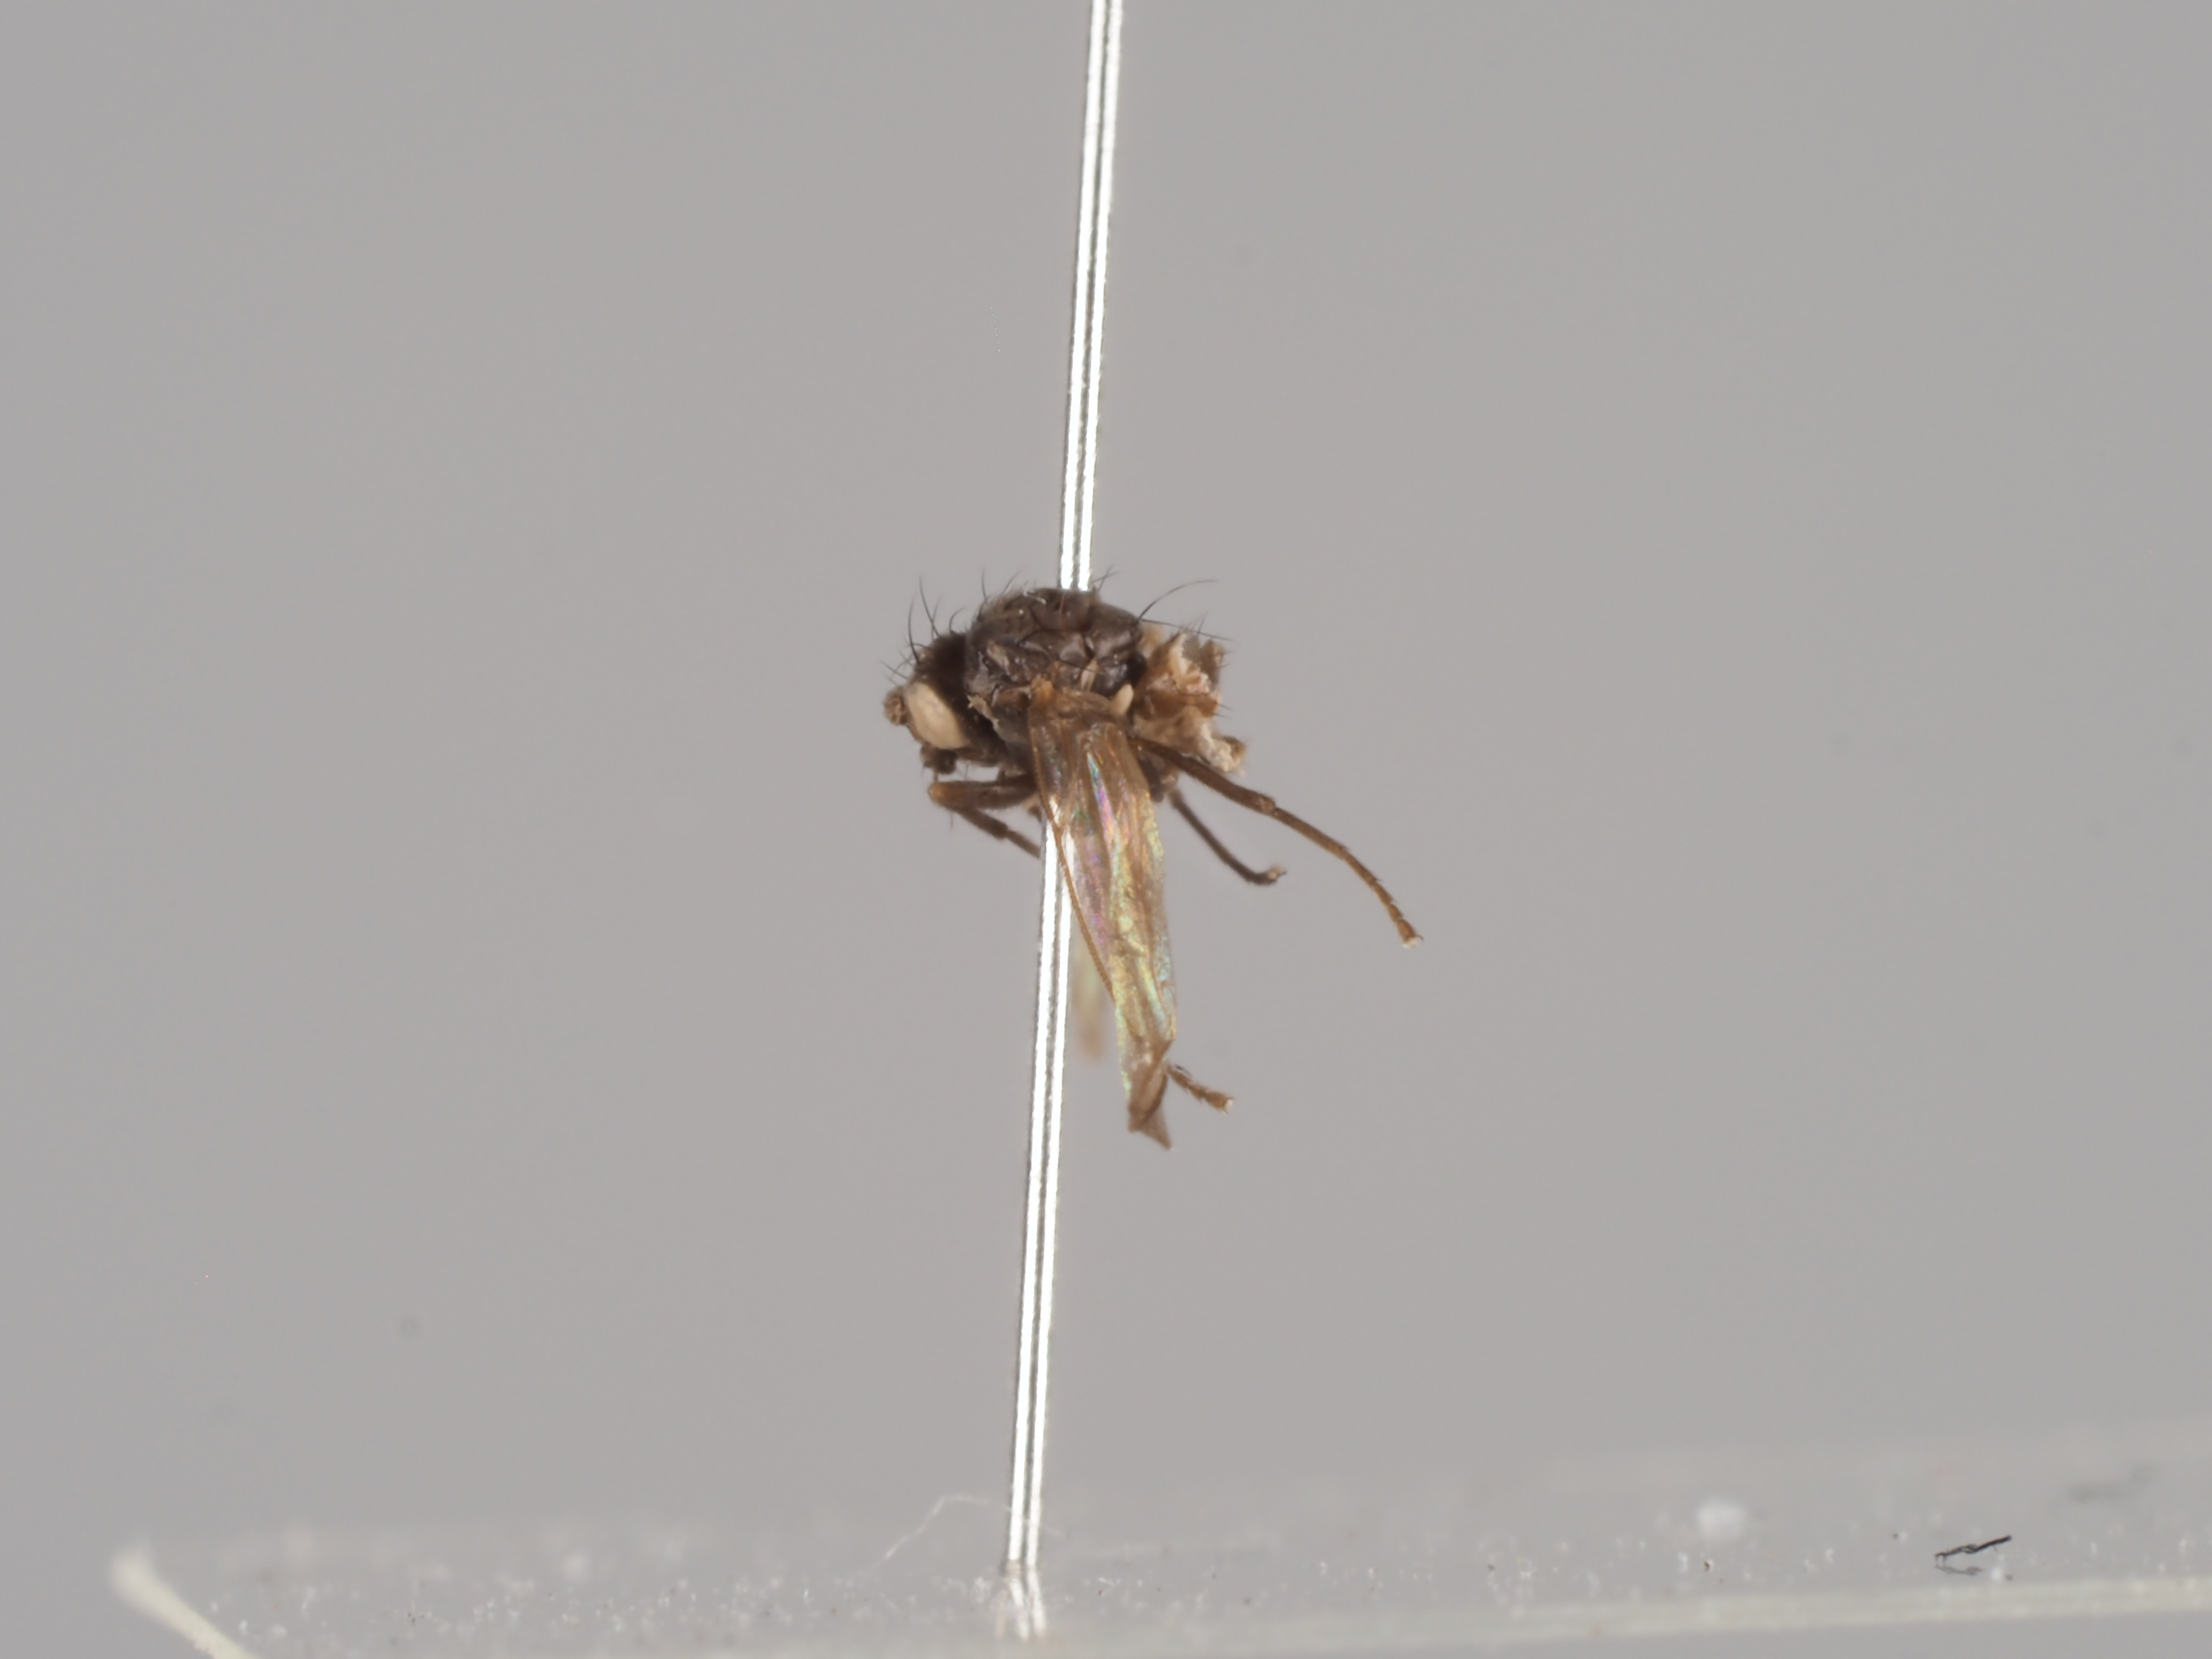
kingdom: Animalia
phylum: Arthropoda
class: Insecta
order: Diptera
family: Agromyzidae
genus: Phytomyza
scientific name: Phytomyza soenderupi
